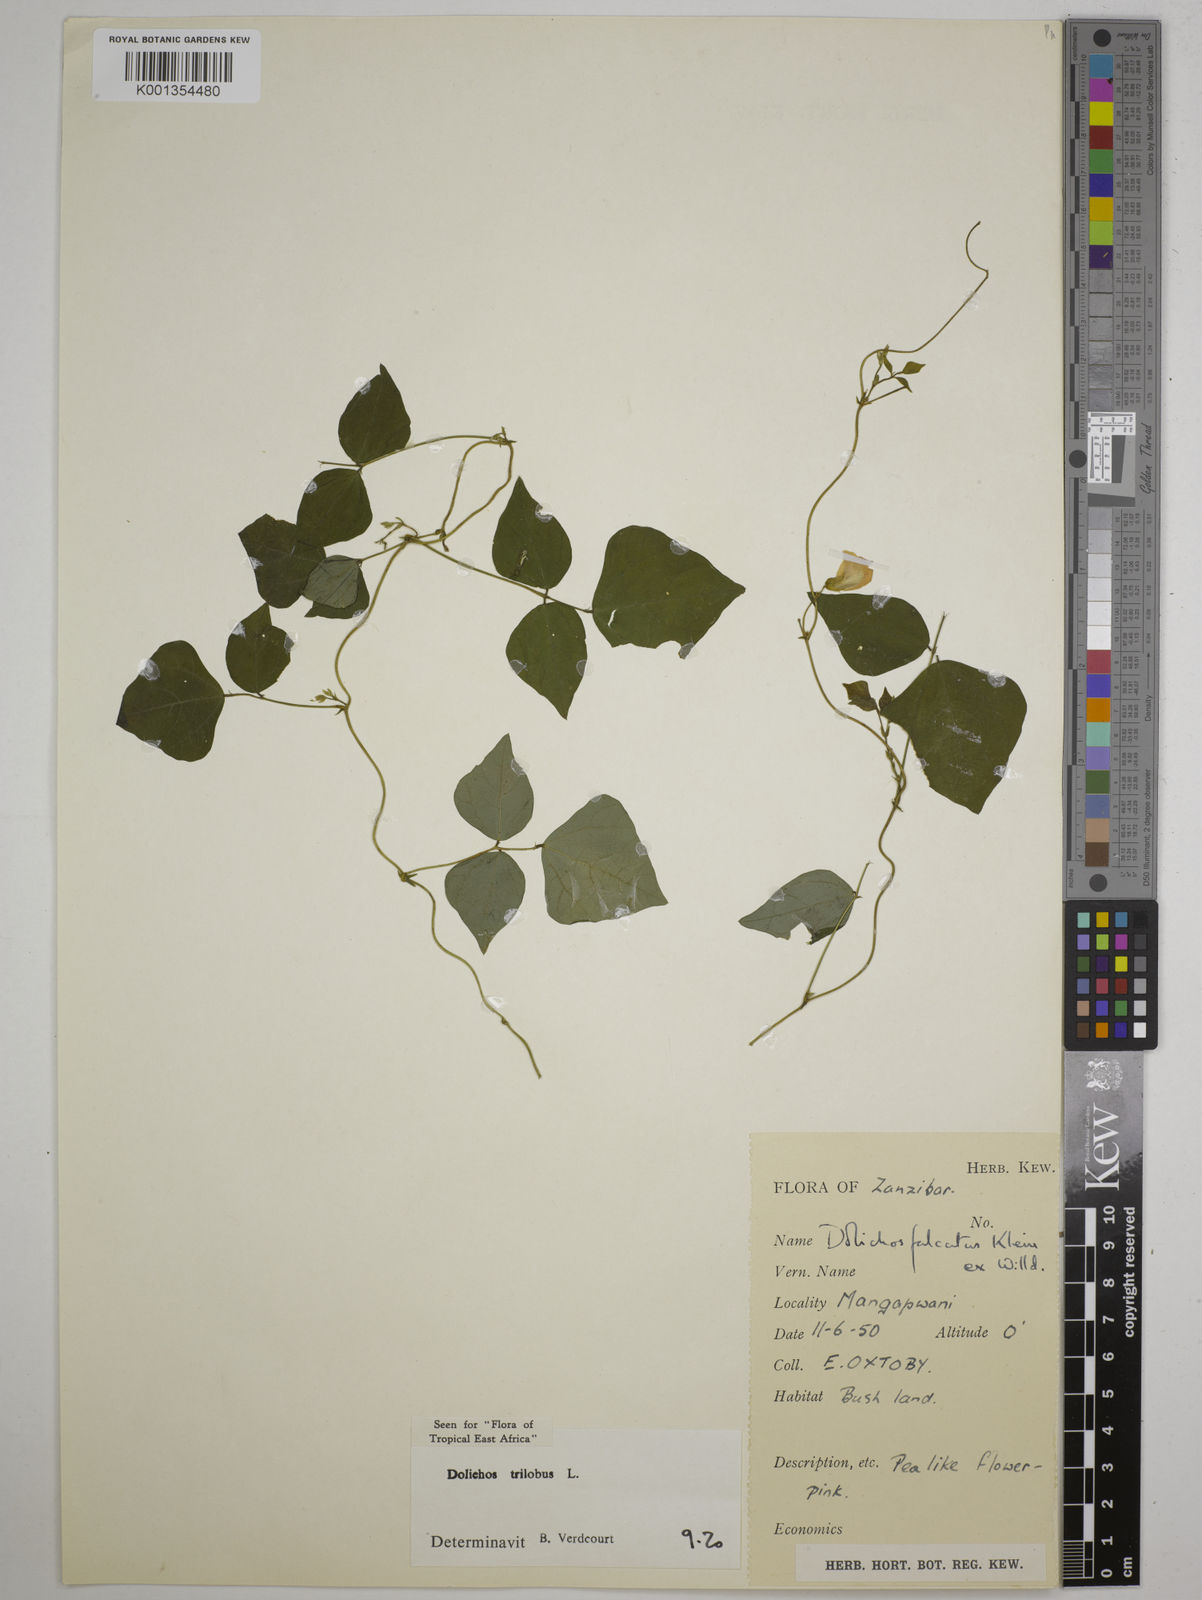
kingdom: Plantae
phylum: Tracheophyta
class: Magnoliopsida
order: Fabales
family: Fabaceae
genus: Dolichos
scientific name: Dolichos
